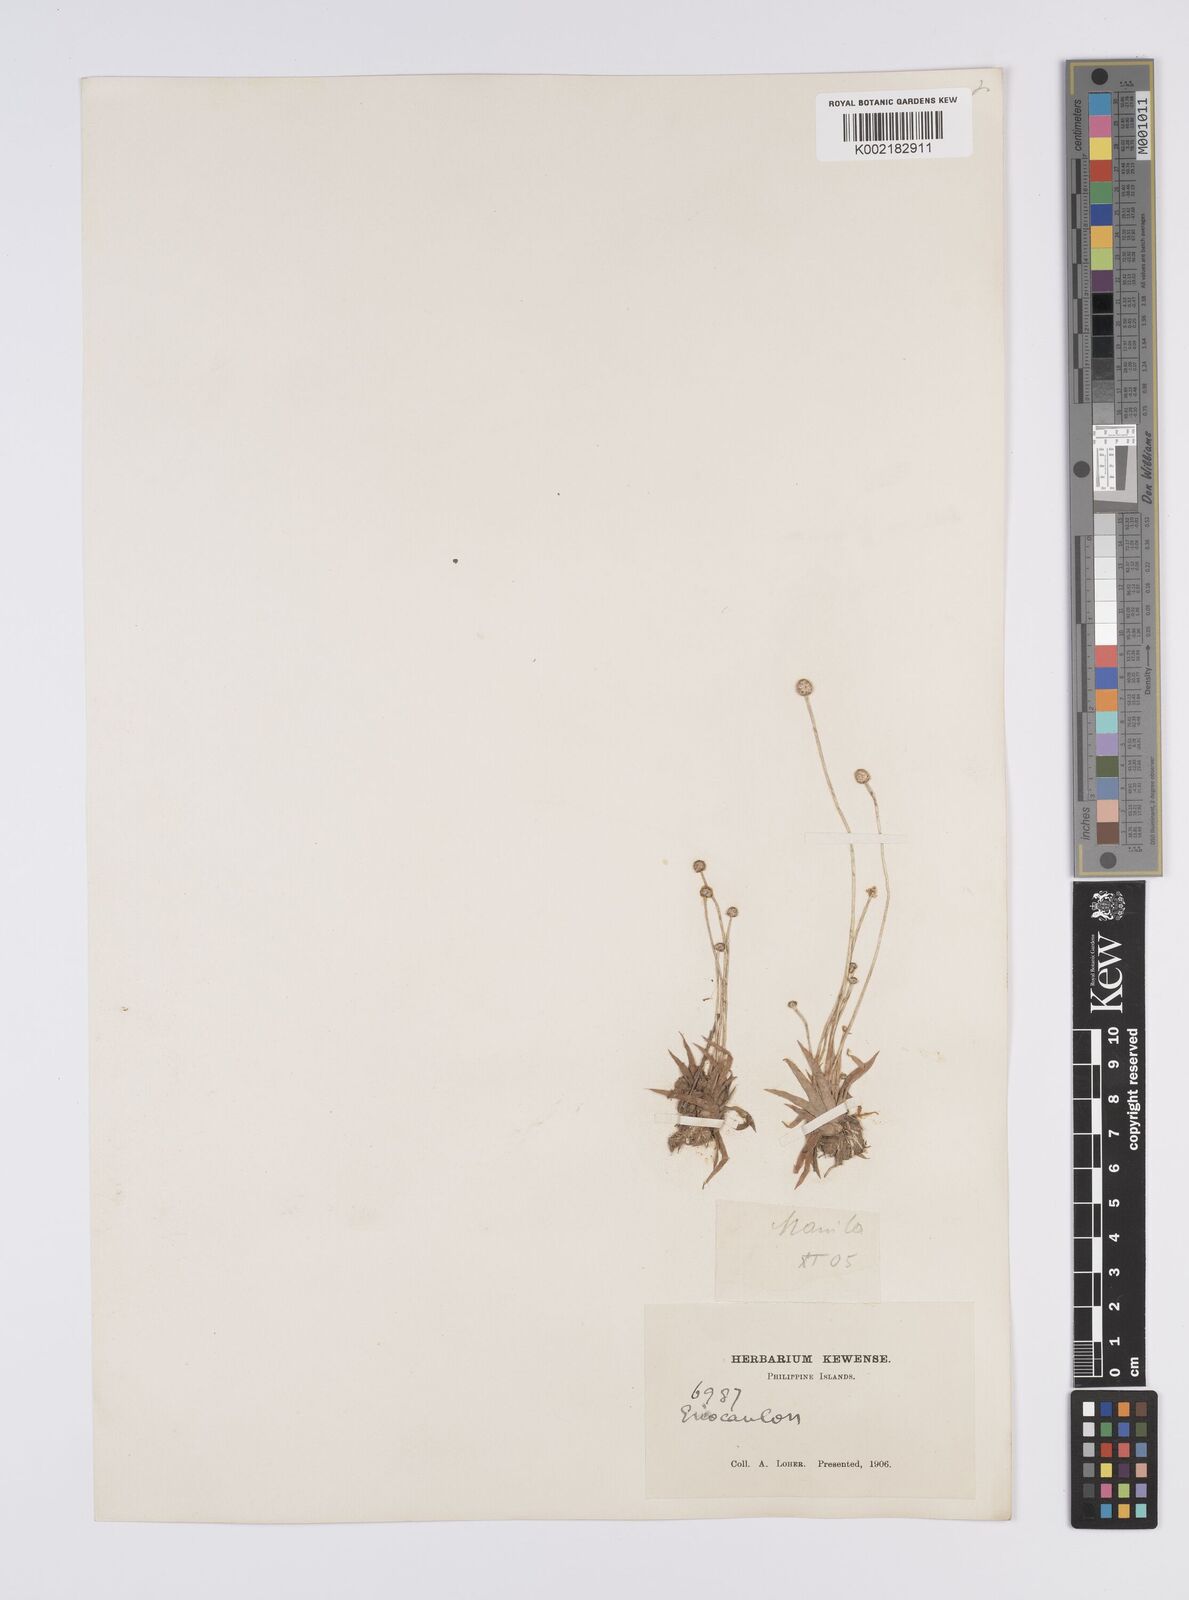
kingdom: Plantae
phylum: Tracheophyta
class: Liliopsida
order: Poales
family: Eriocaulaceae
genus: Eriocaulon
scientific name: Eriocaulon zollingerianum
